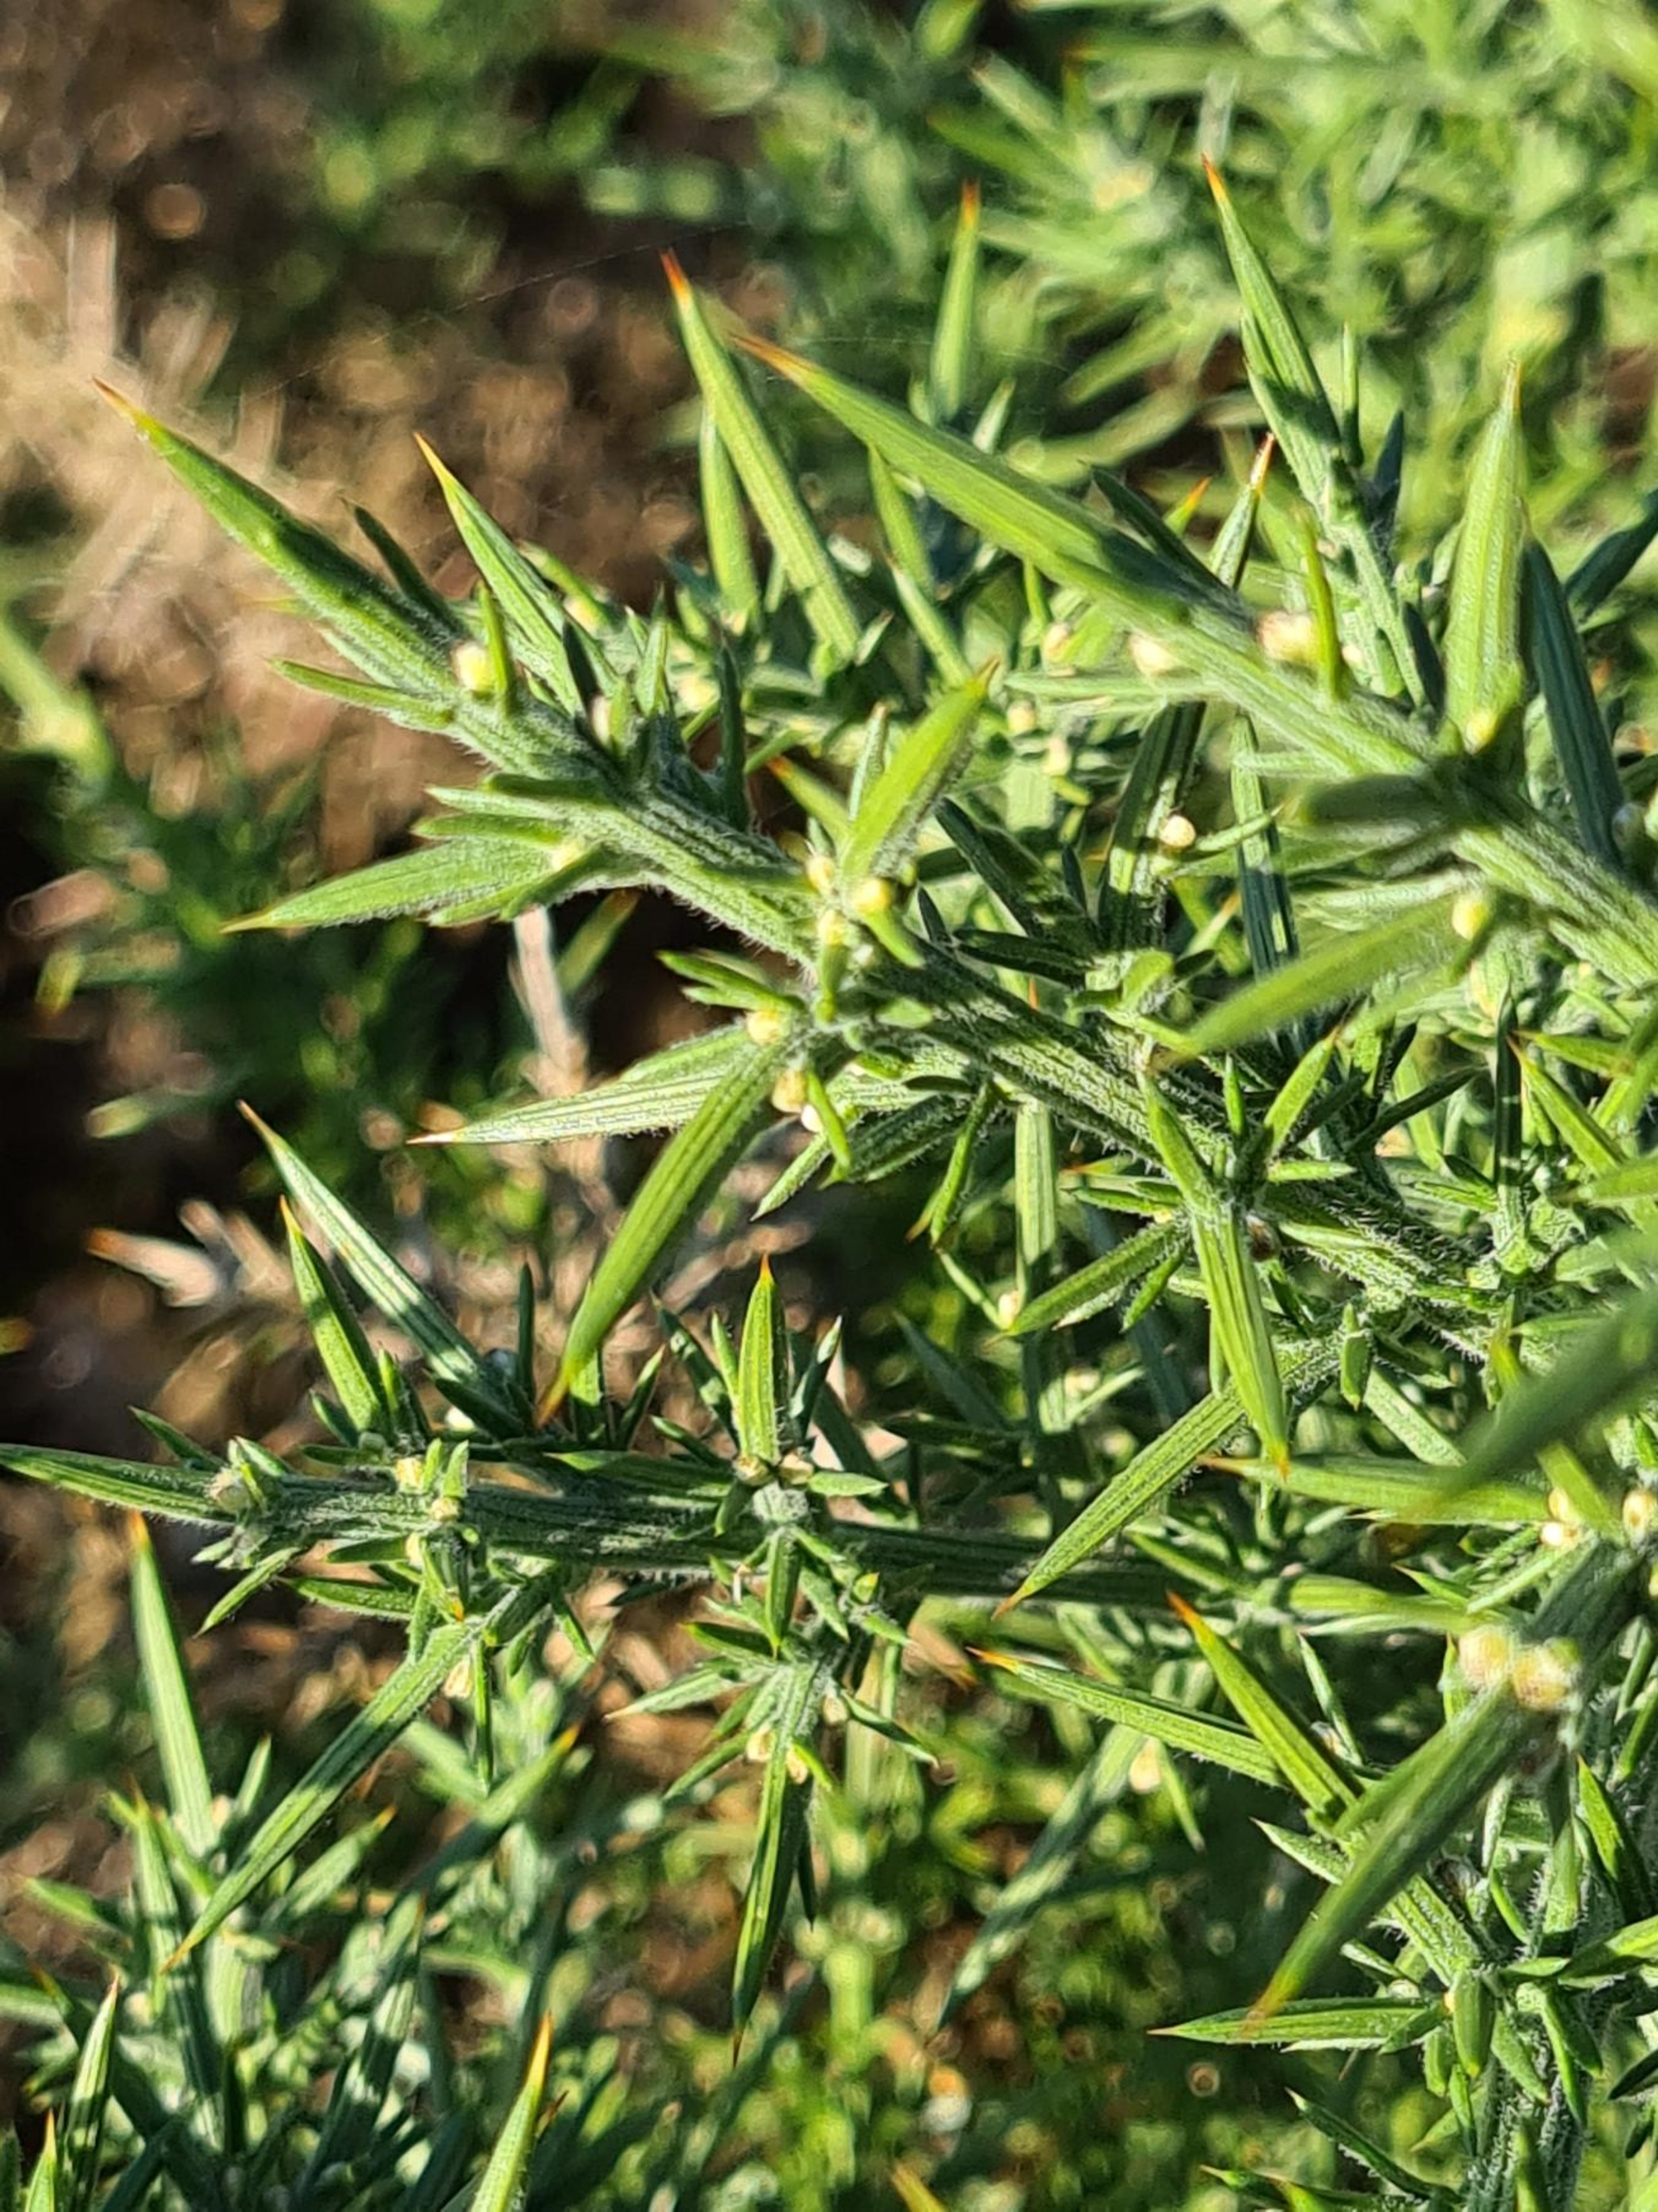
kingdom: Plantae
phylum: Tracheophyta
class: Magnoliopsida
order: Fabales
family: Fabaceae
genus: Ulex
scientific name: Ulex europaeus
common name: Tornblad
